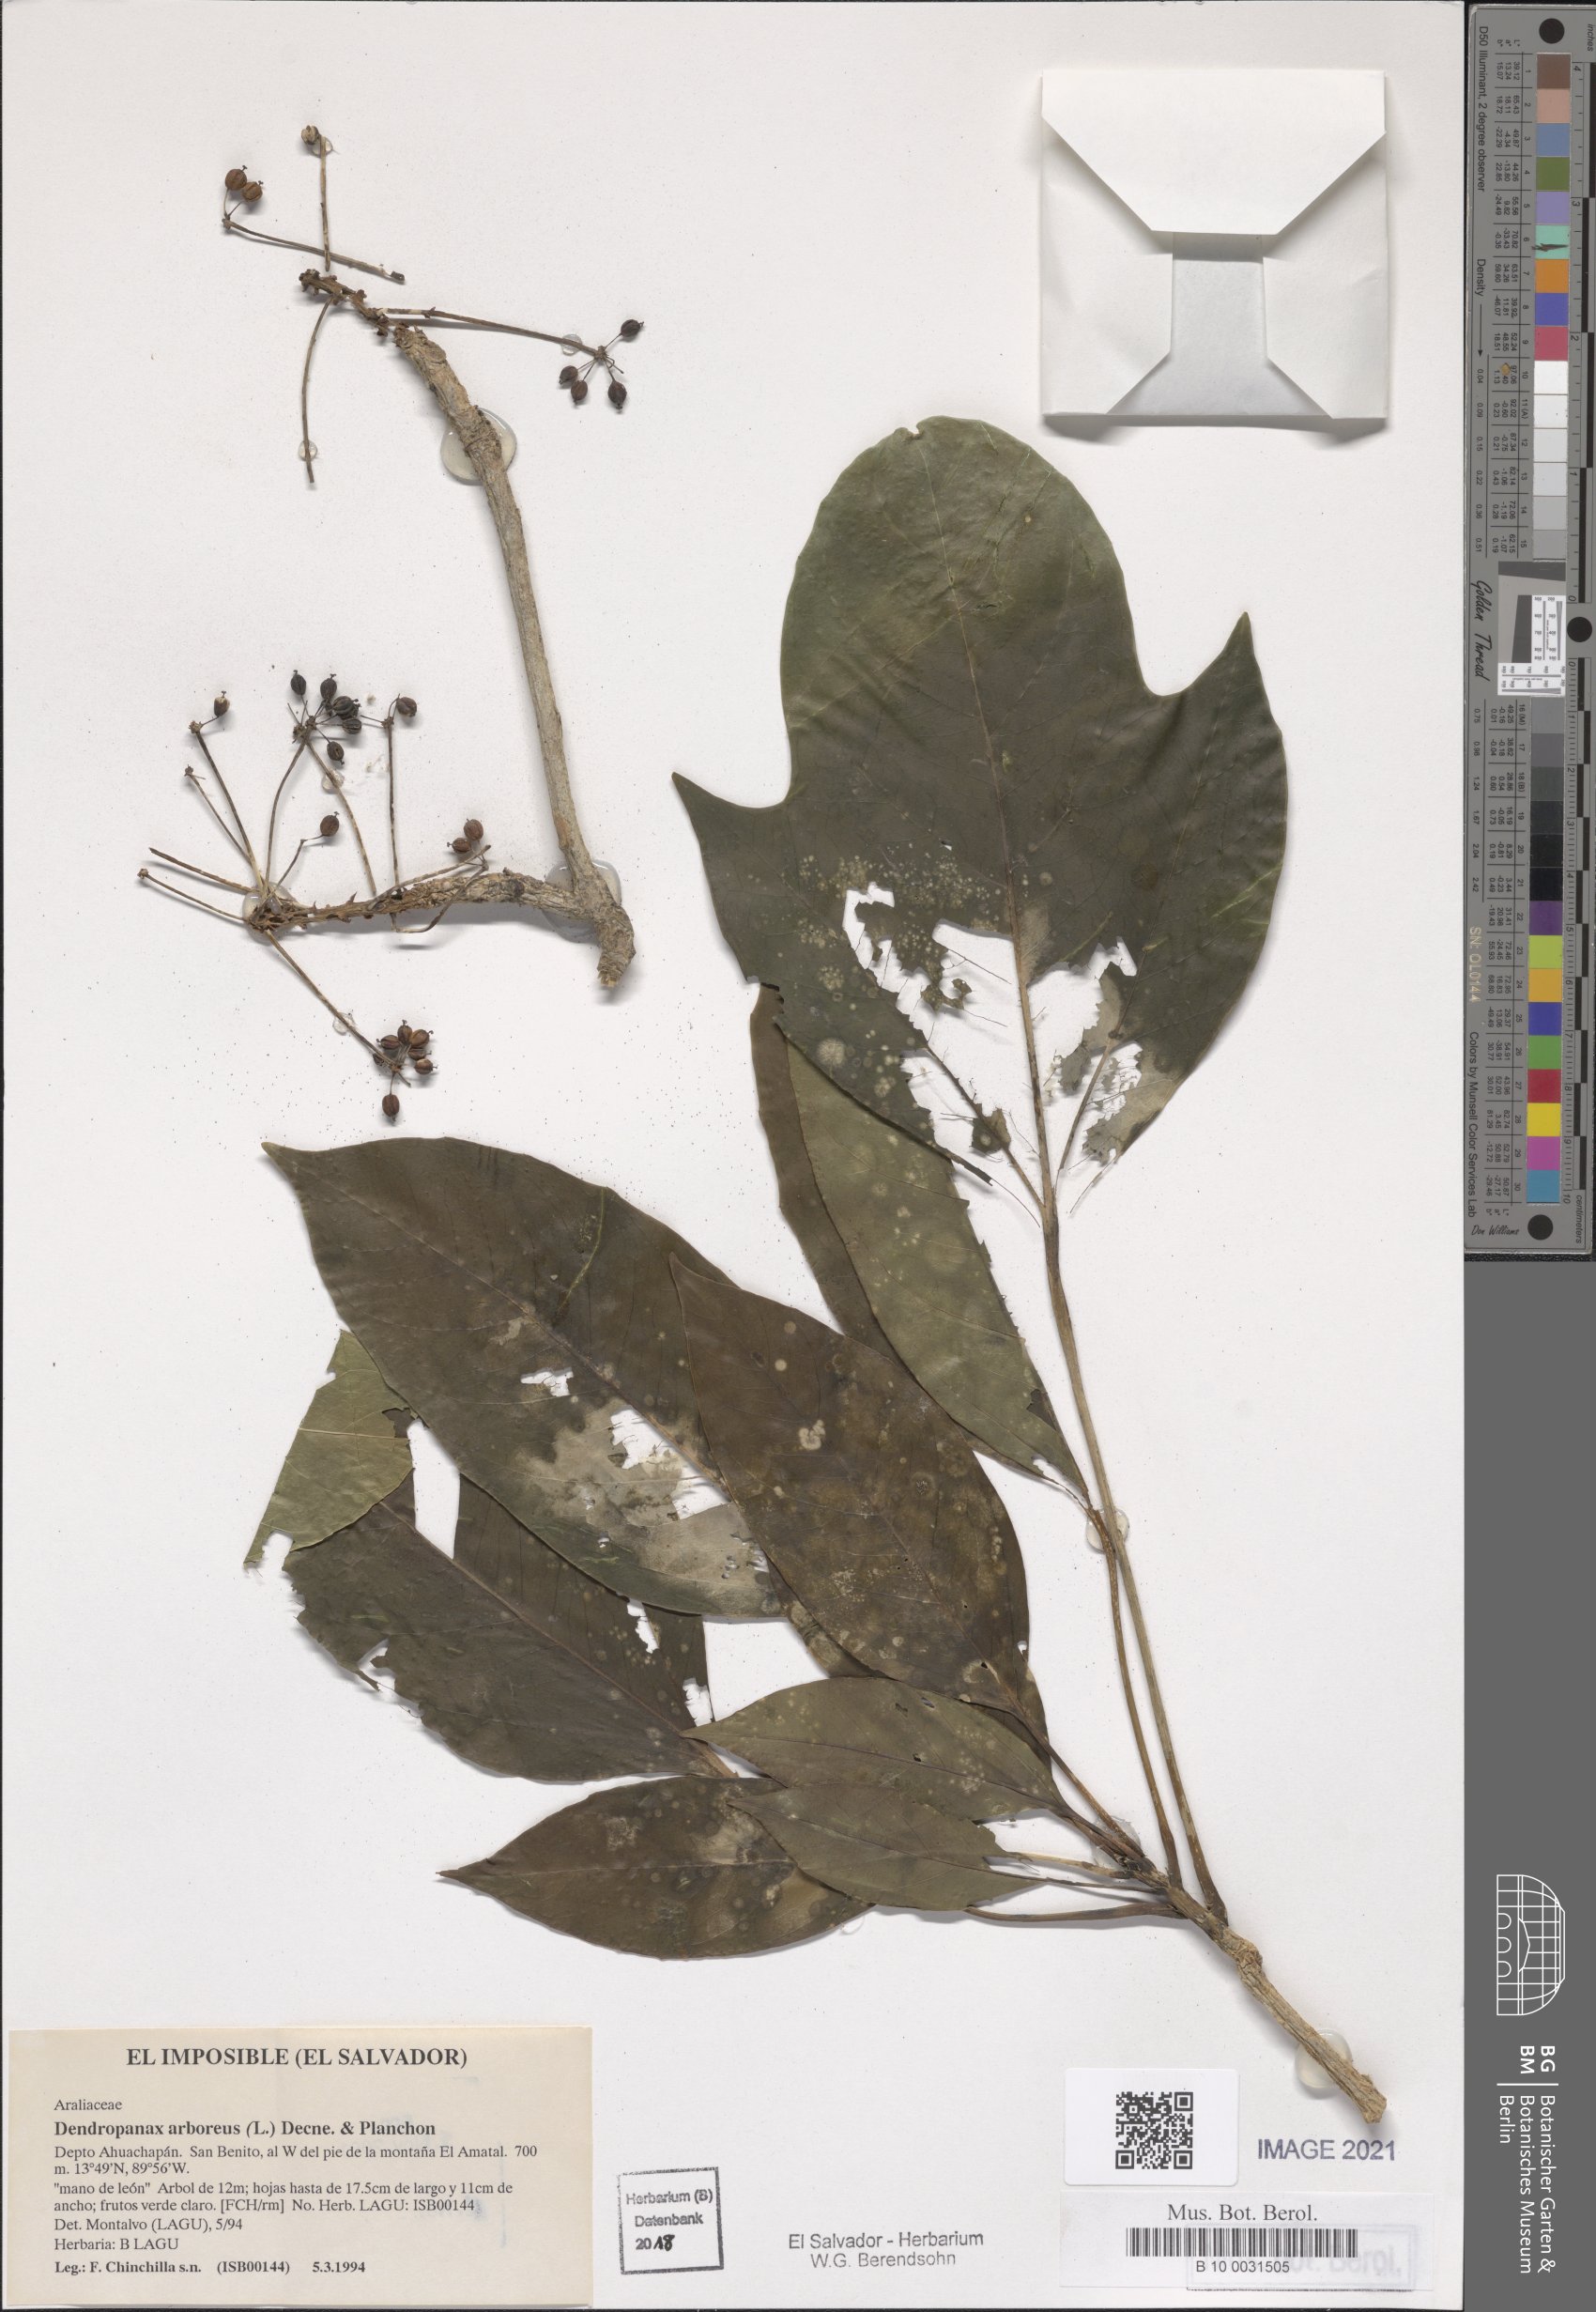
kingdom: Plantae
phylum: Tracheophyta
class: Magnoliopsida
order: Apiales
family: Araliaceae
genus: Dendropanax
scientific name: Dendropanax arboreus
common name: Potato-wood
